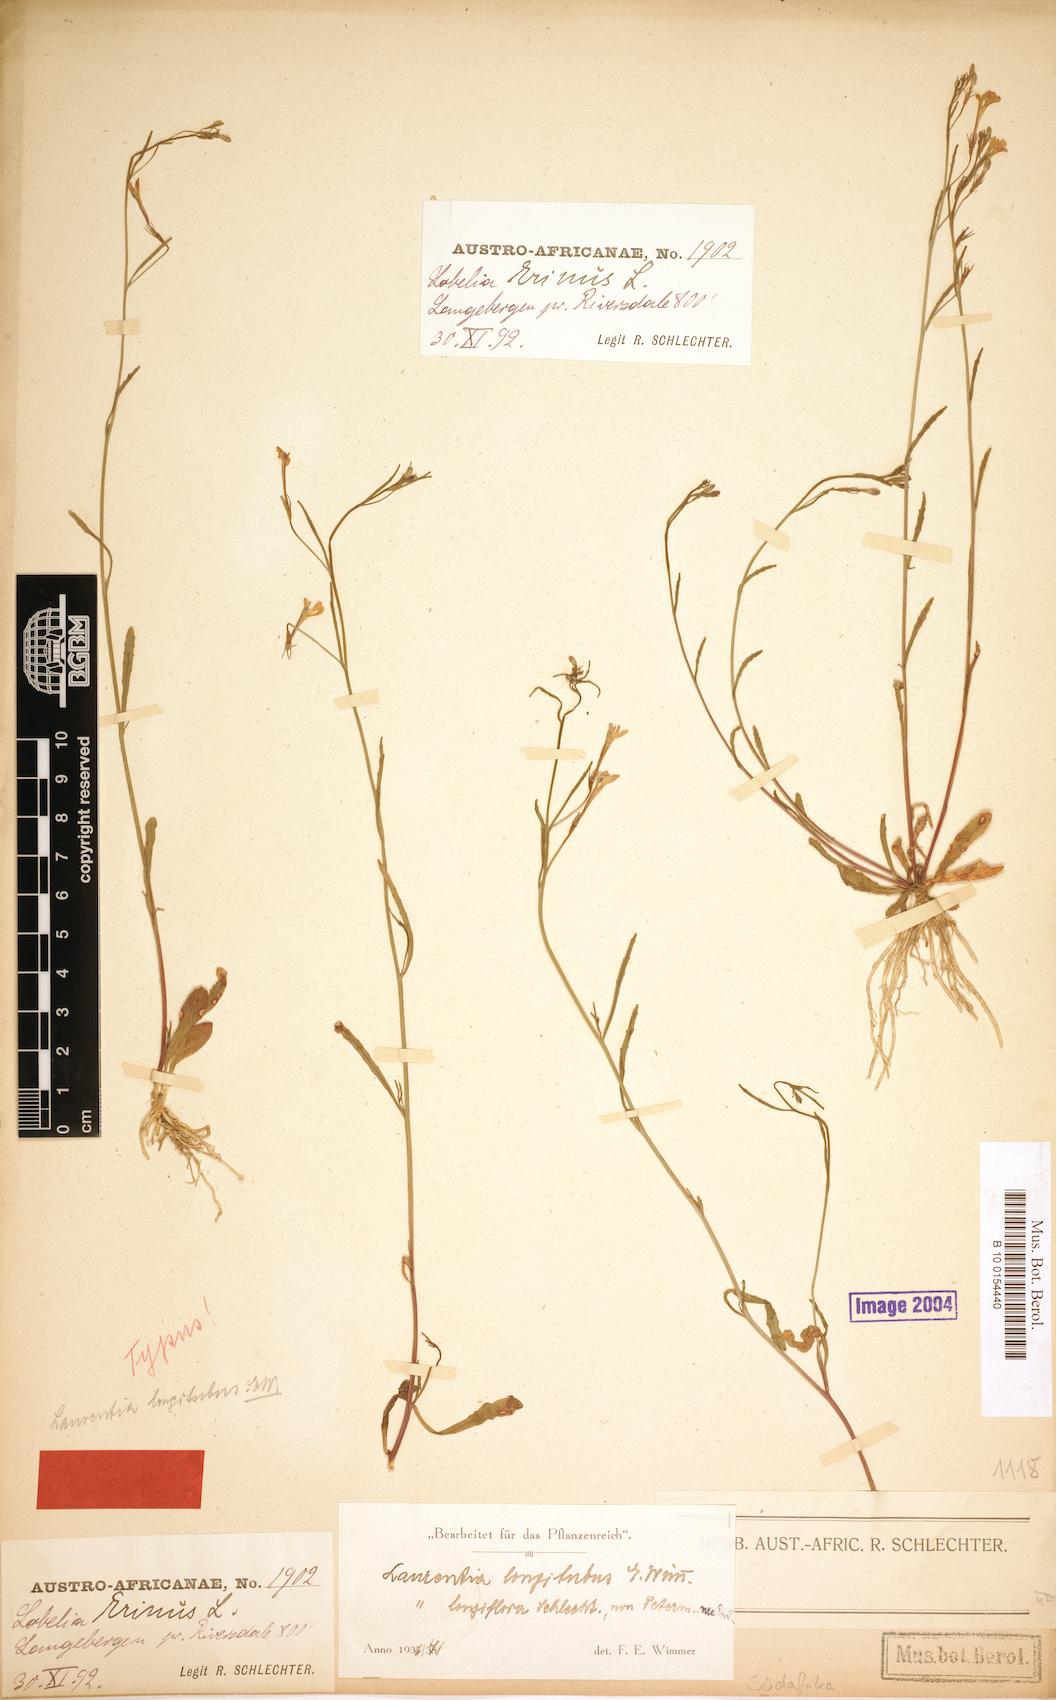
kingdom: Plantae
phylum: Tracheophyta
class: Magnoliopsida
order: Asterales
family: Campanulaceae
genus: Wimmerella
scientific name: Wimmerella longitubus
